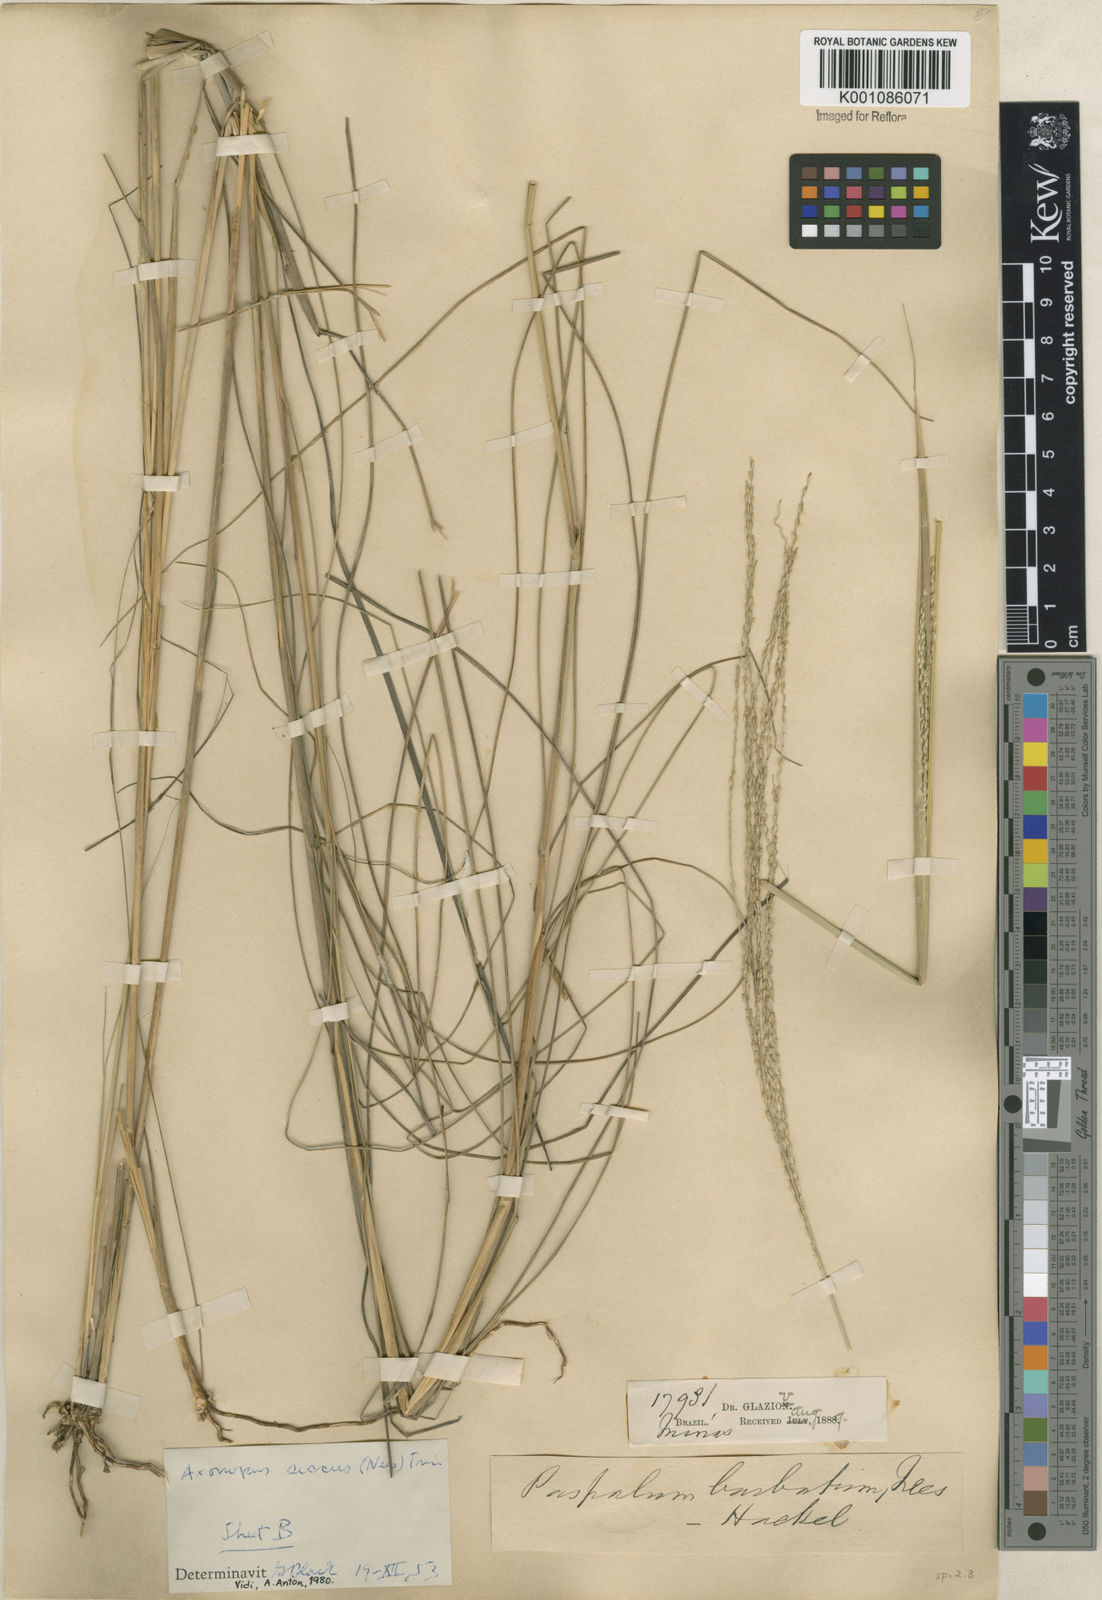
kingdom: Plantae
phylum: Tracheophyta
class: Liliopsida
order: Poales
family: Poaceae
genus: Axonopus
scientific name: Axonopus siccus
